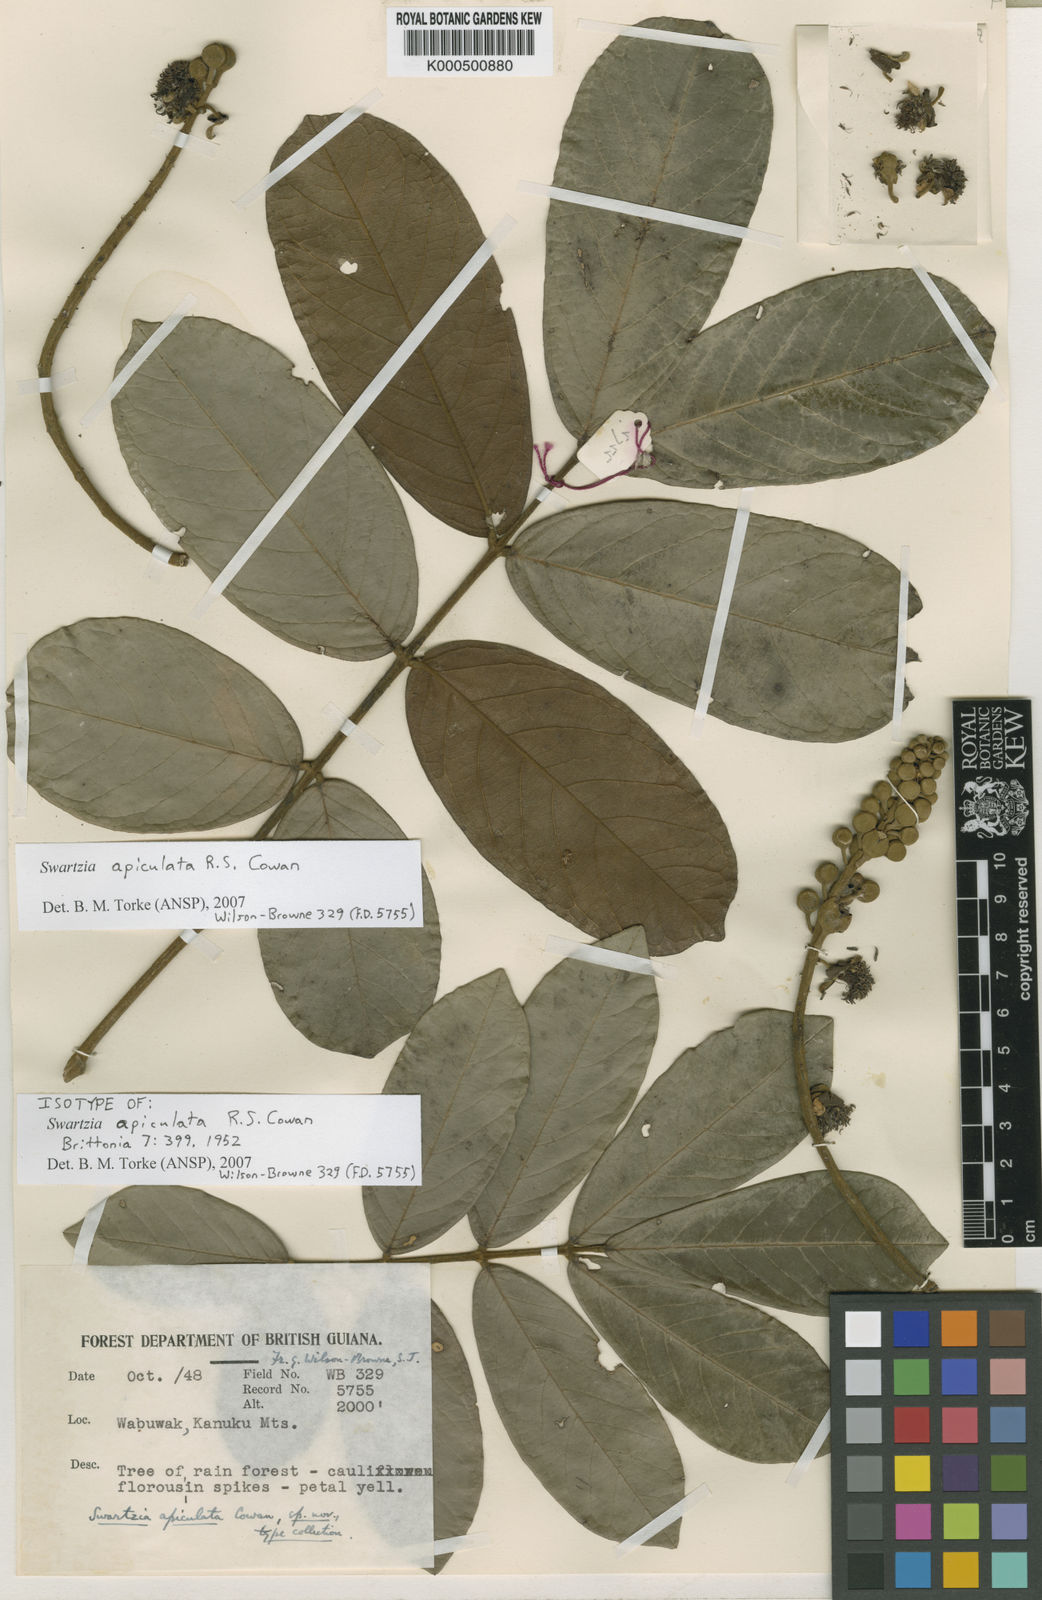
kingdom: Plantae
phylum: Tracheophyta
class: Magnoliopsida
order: Fabales
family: Fabaceae
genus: Swartzia
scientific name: Swartzia apiculata
